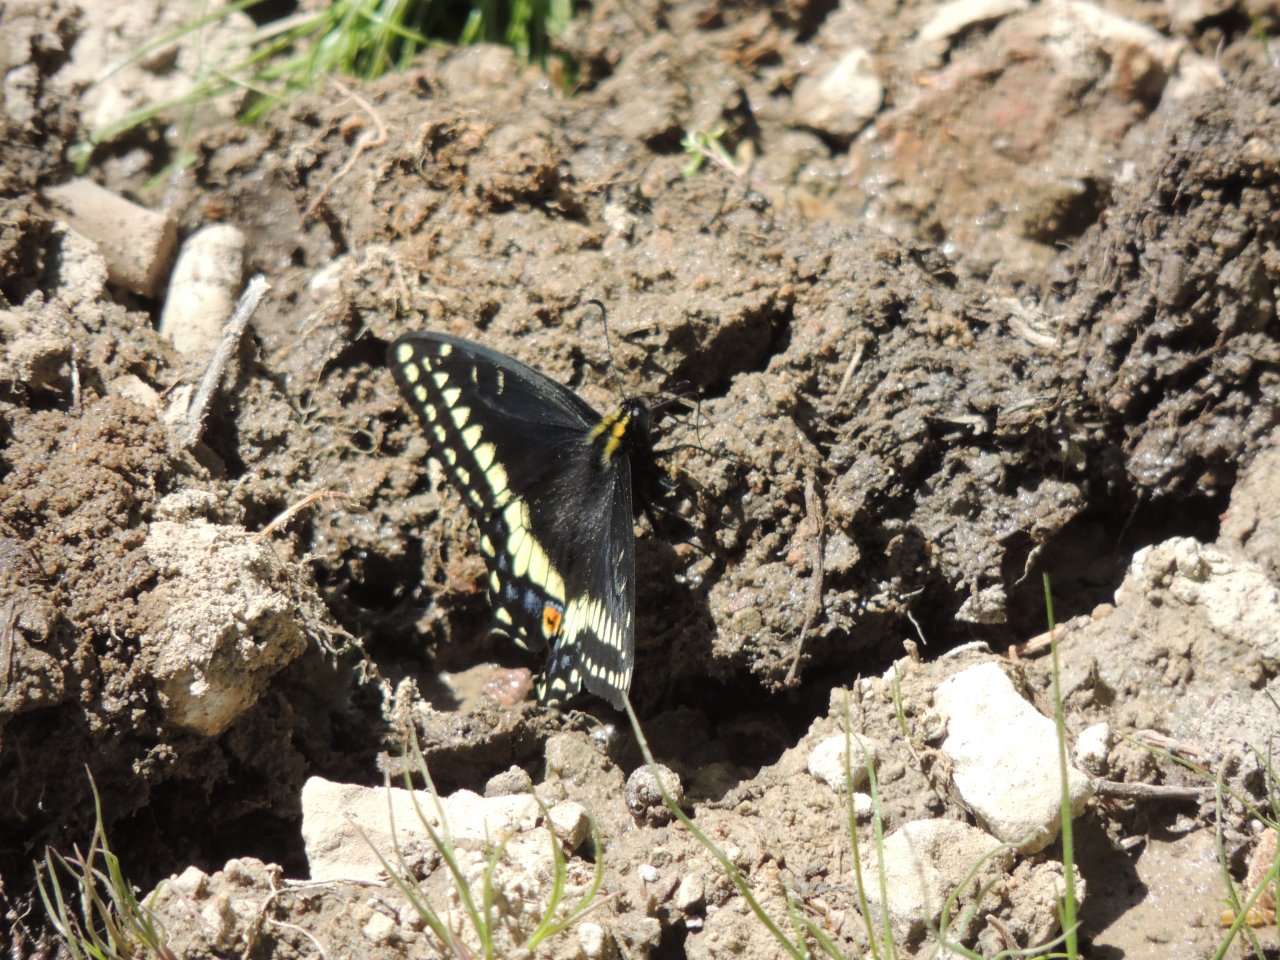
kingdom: Animalia
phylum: Arthropoda
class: Insecta
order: Lepidoptera
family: Papilionidae
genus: Papilio
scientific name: Papilio indra
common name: Indra Swallowtail
